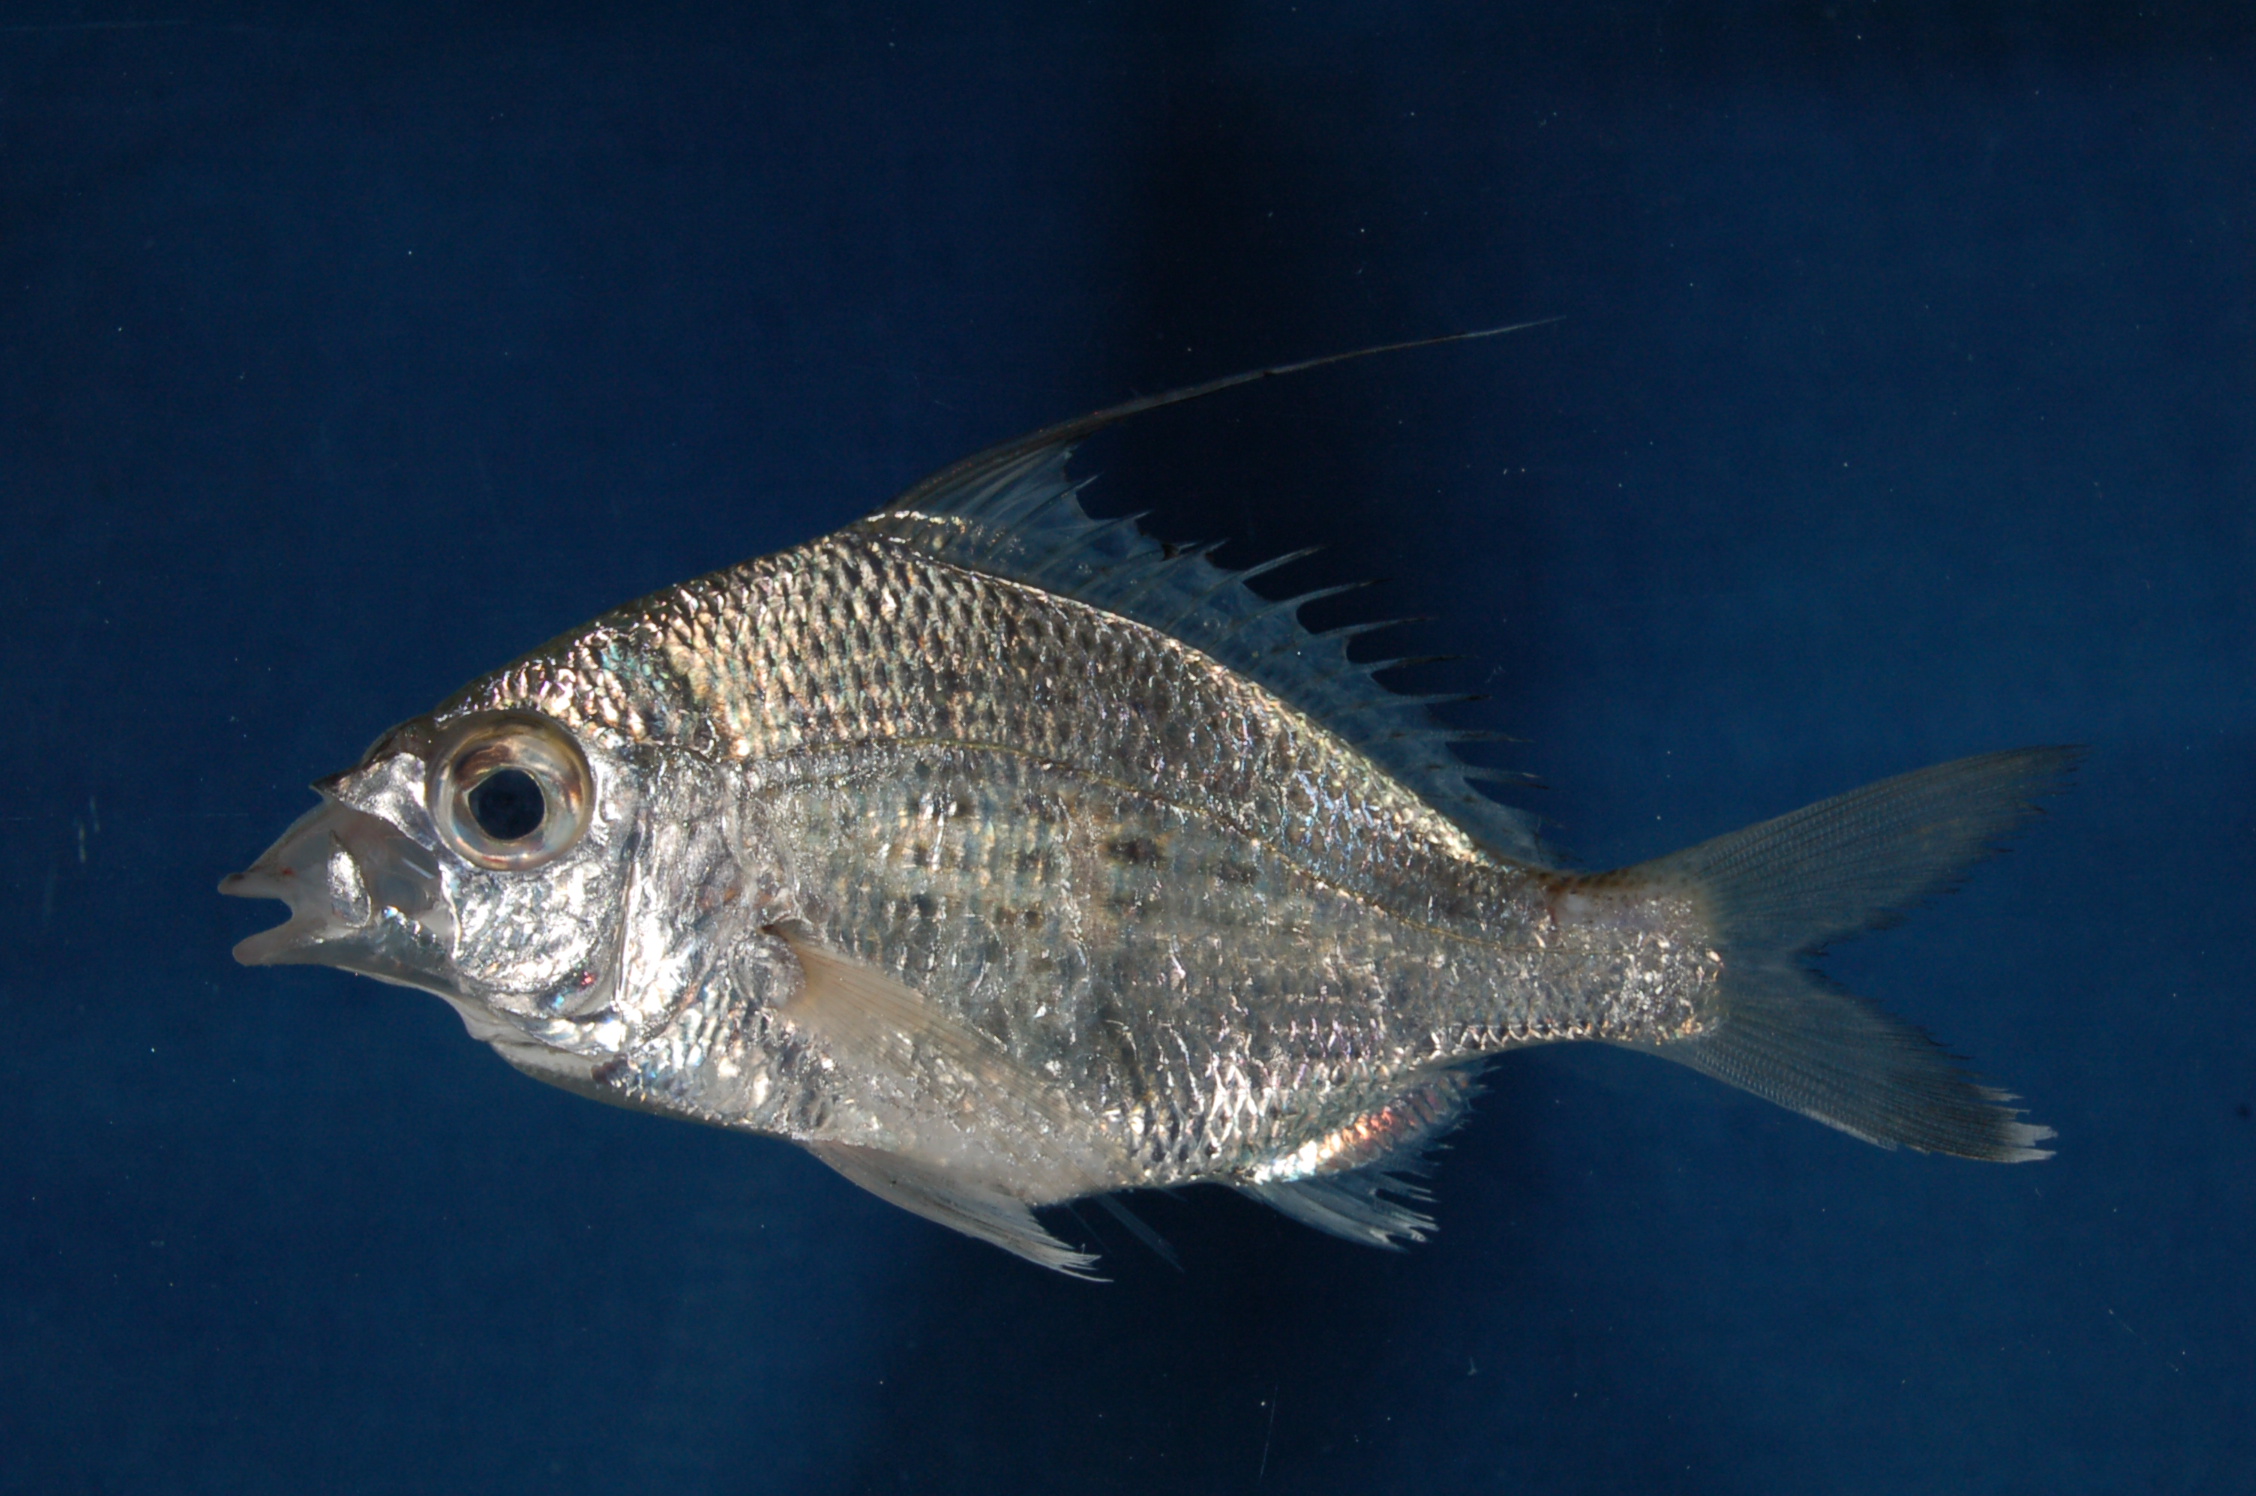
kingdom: Animalia
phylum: Chordata
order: Perciformes
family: Gerreidae
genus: Gerres
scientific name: Gerres filamentosus
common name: Whipfin silverbiddy
